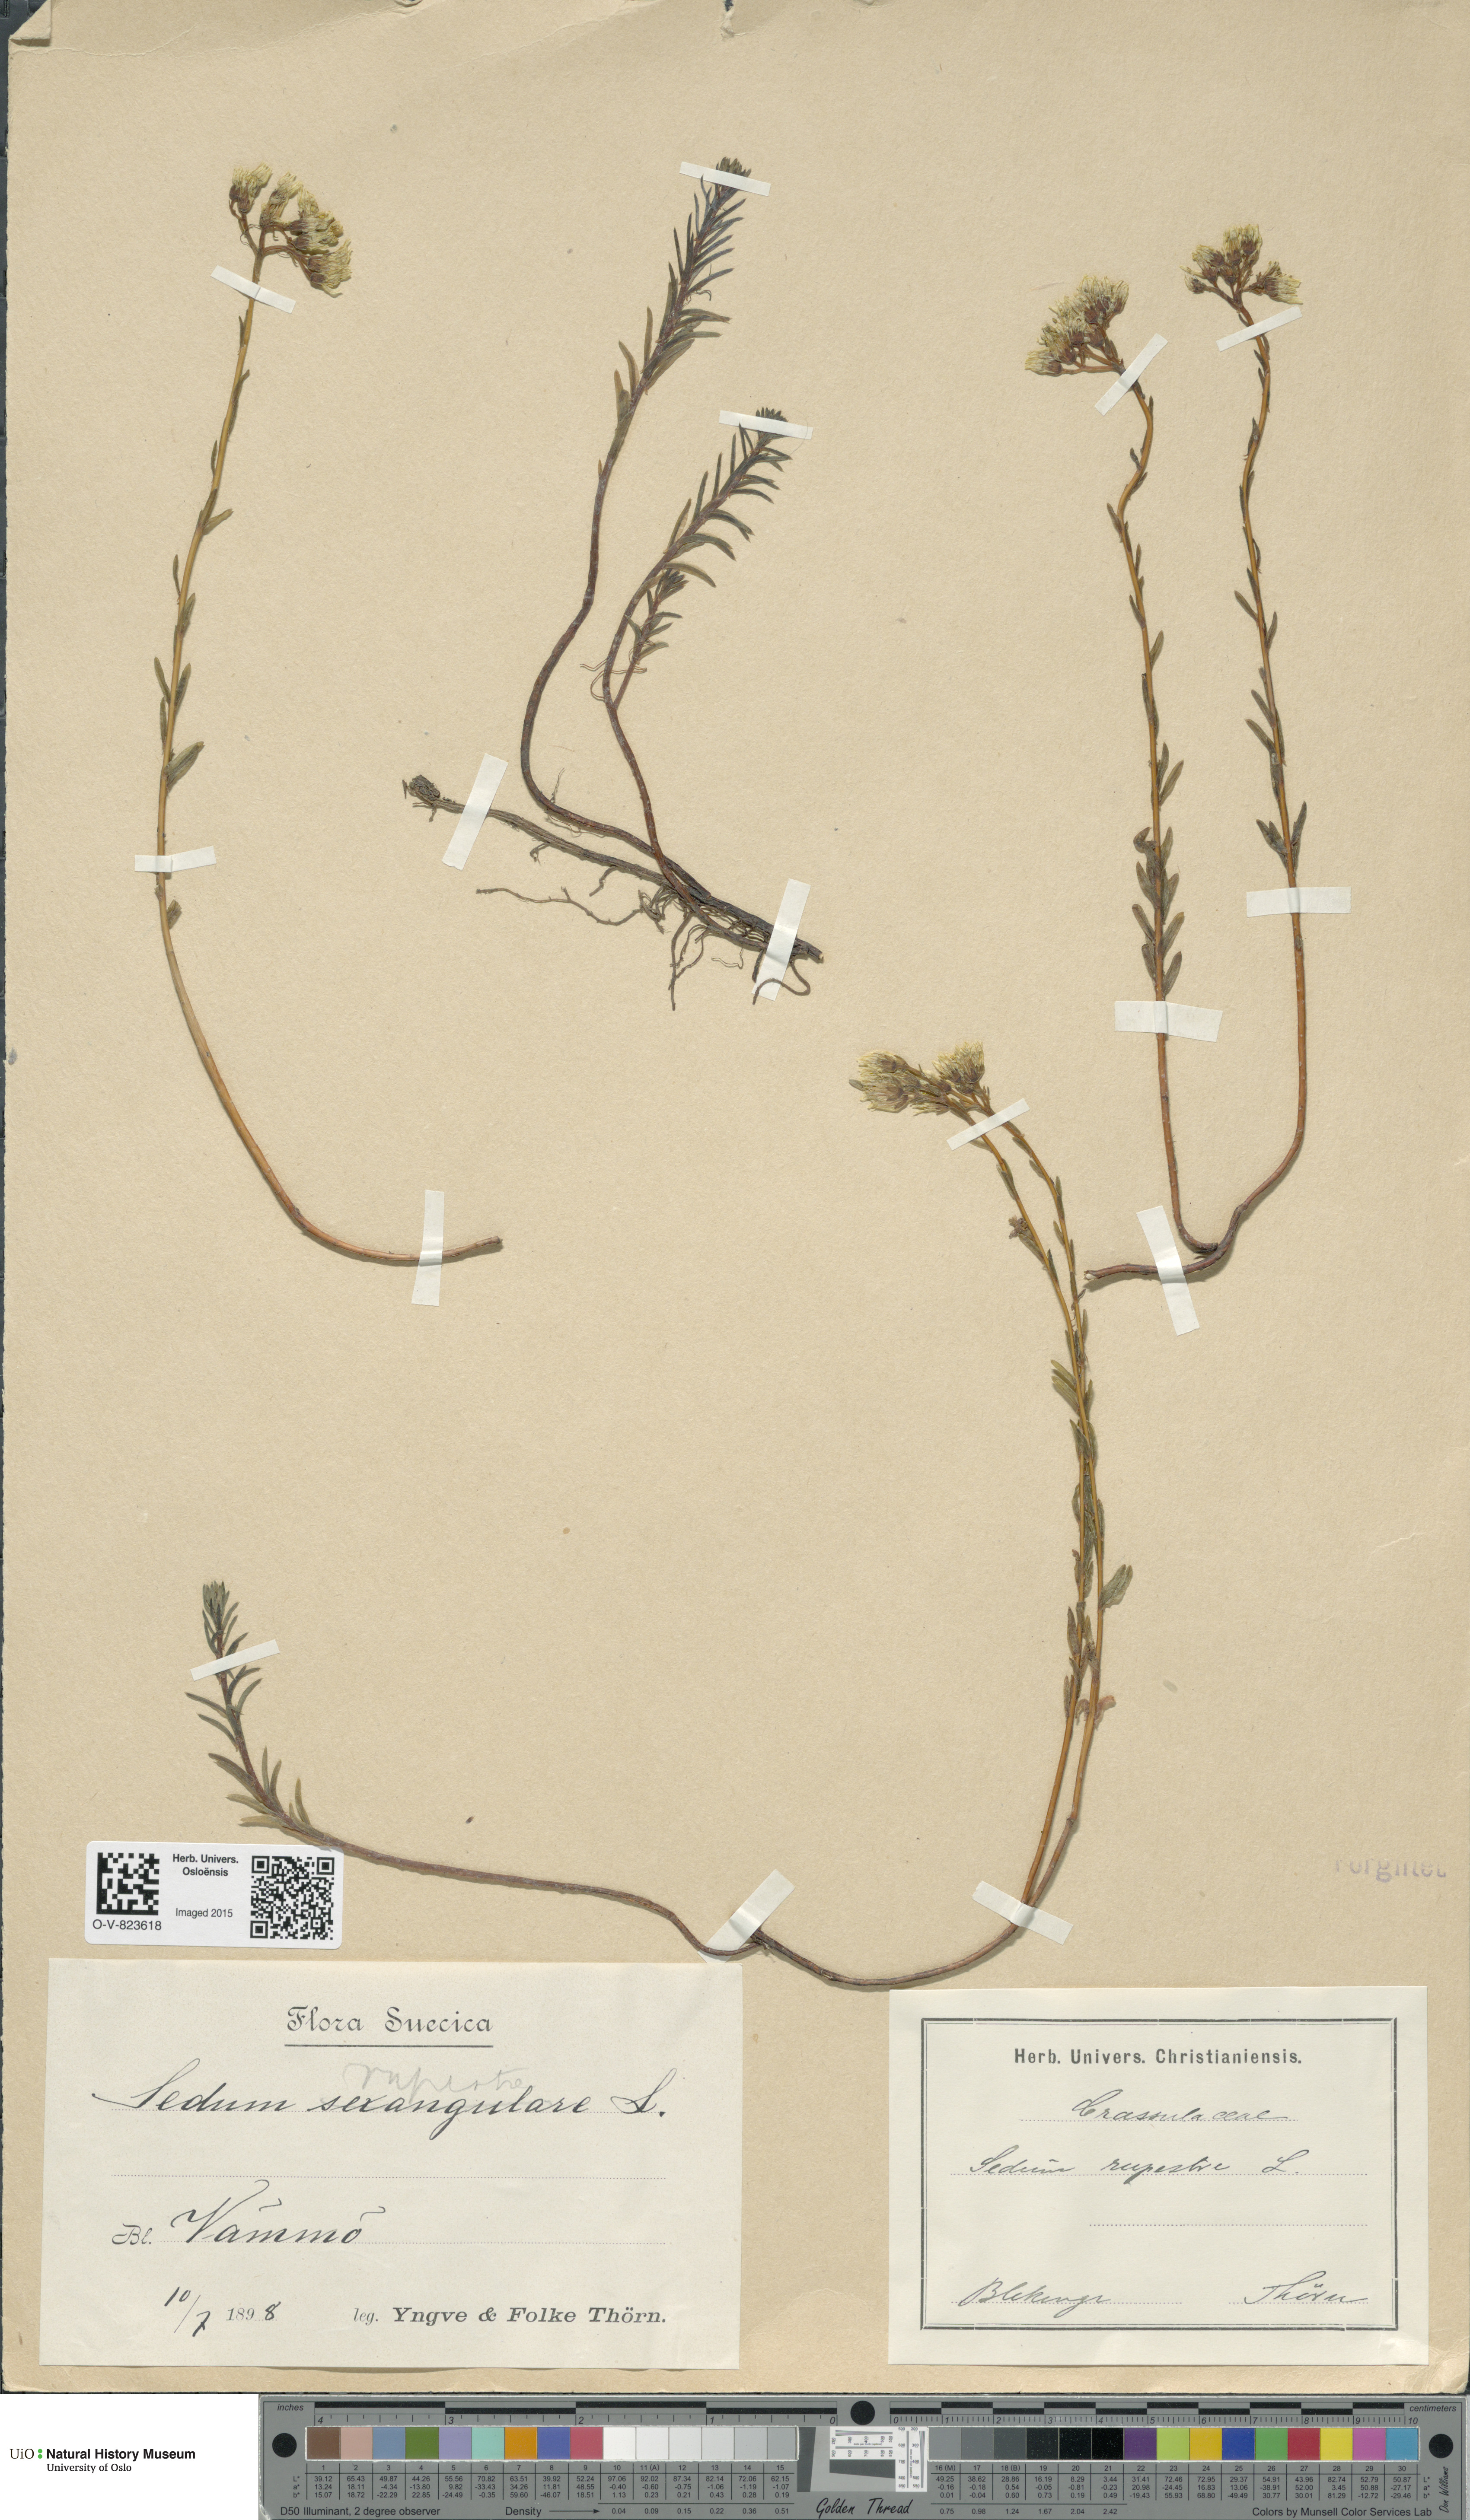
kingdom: Plantae
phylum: Tracheophyta
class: Magnoliopsida
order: Saxifragales
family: Crassulaceae
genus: Petrosedum
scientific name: Petrosedum rupestre
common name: Jenny's stonecrop
